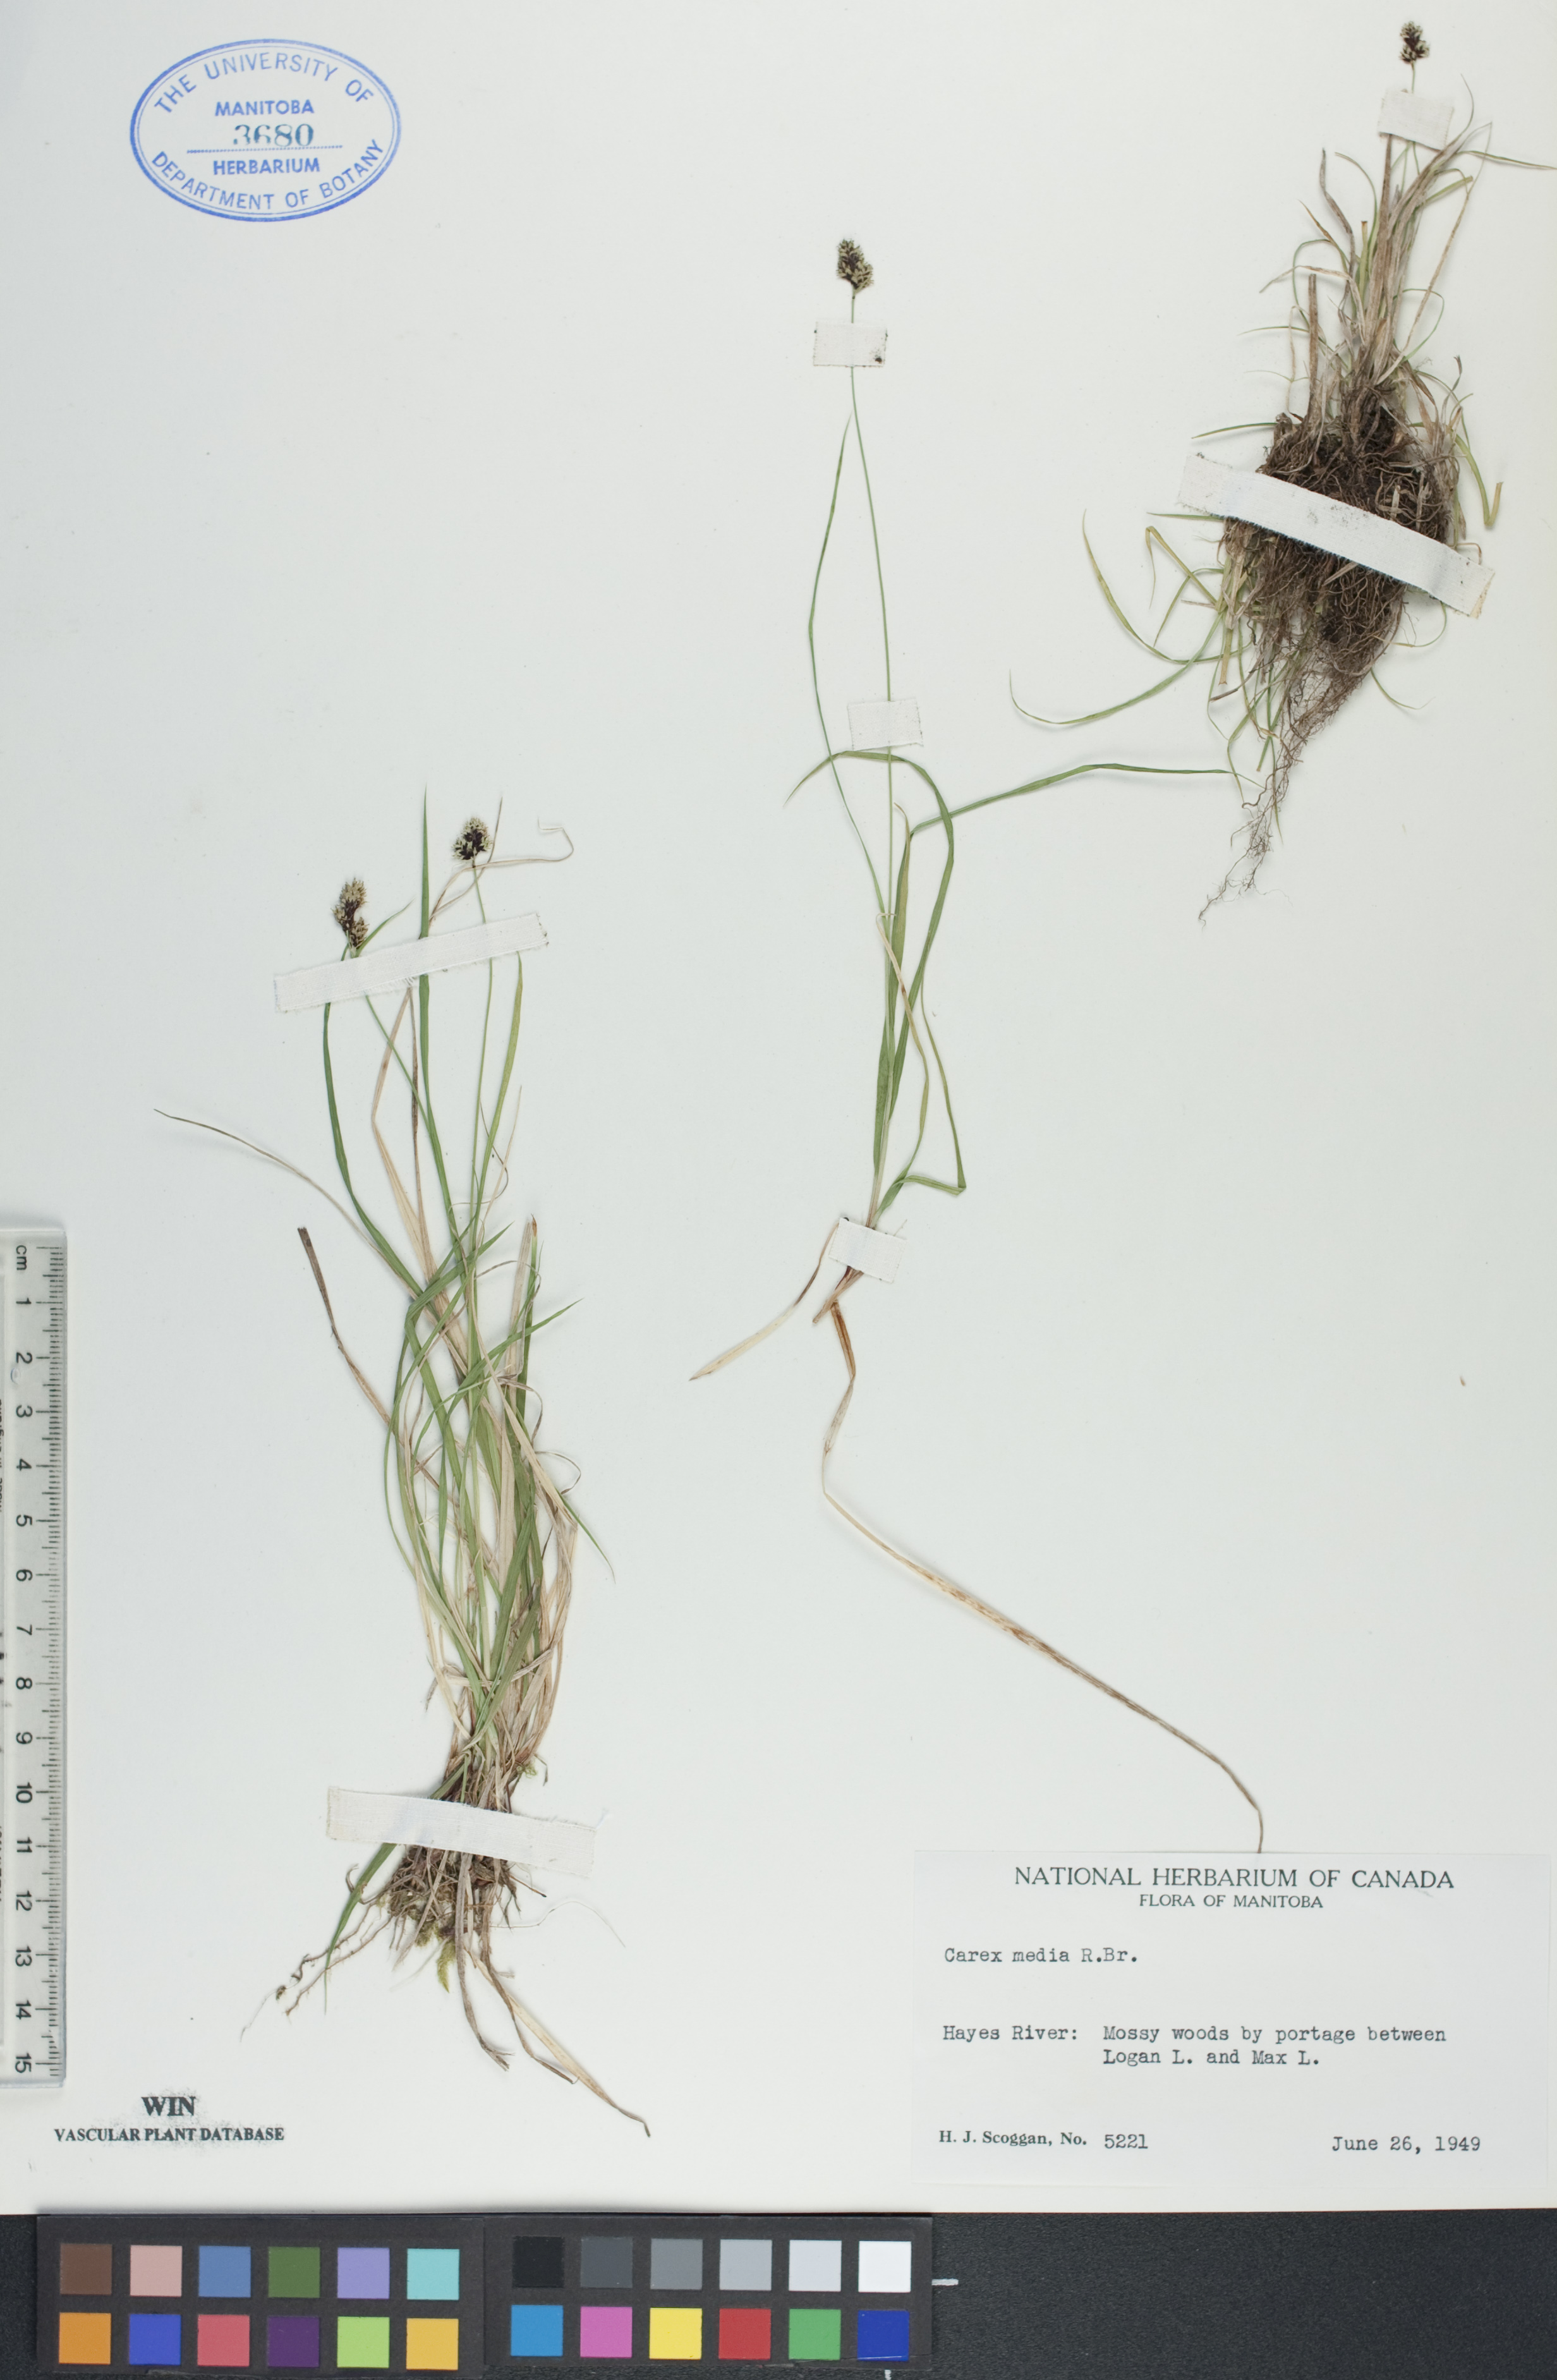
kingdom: Plantae
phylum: Tracheophyta
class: Liliopsida
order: Poales
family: Cyperaceae
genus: Carex
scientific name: Carex media
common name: Alpine sedge
